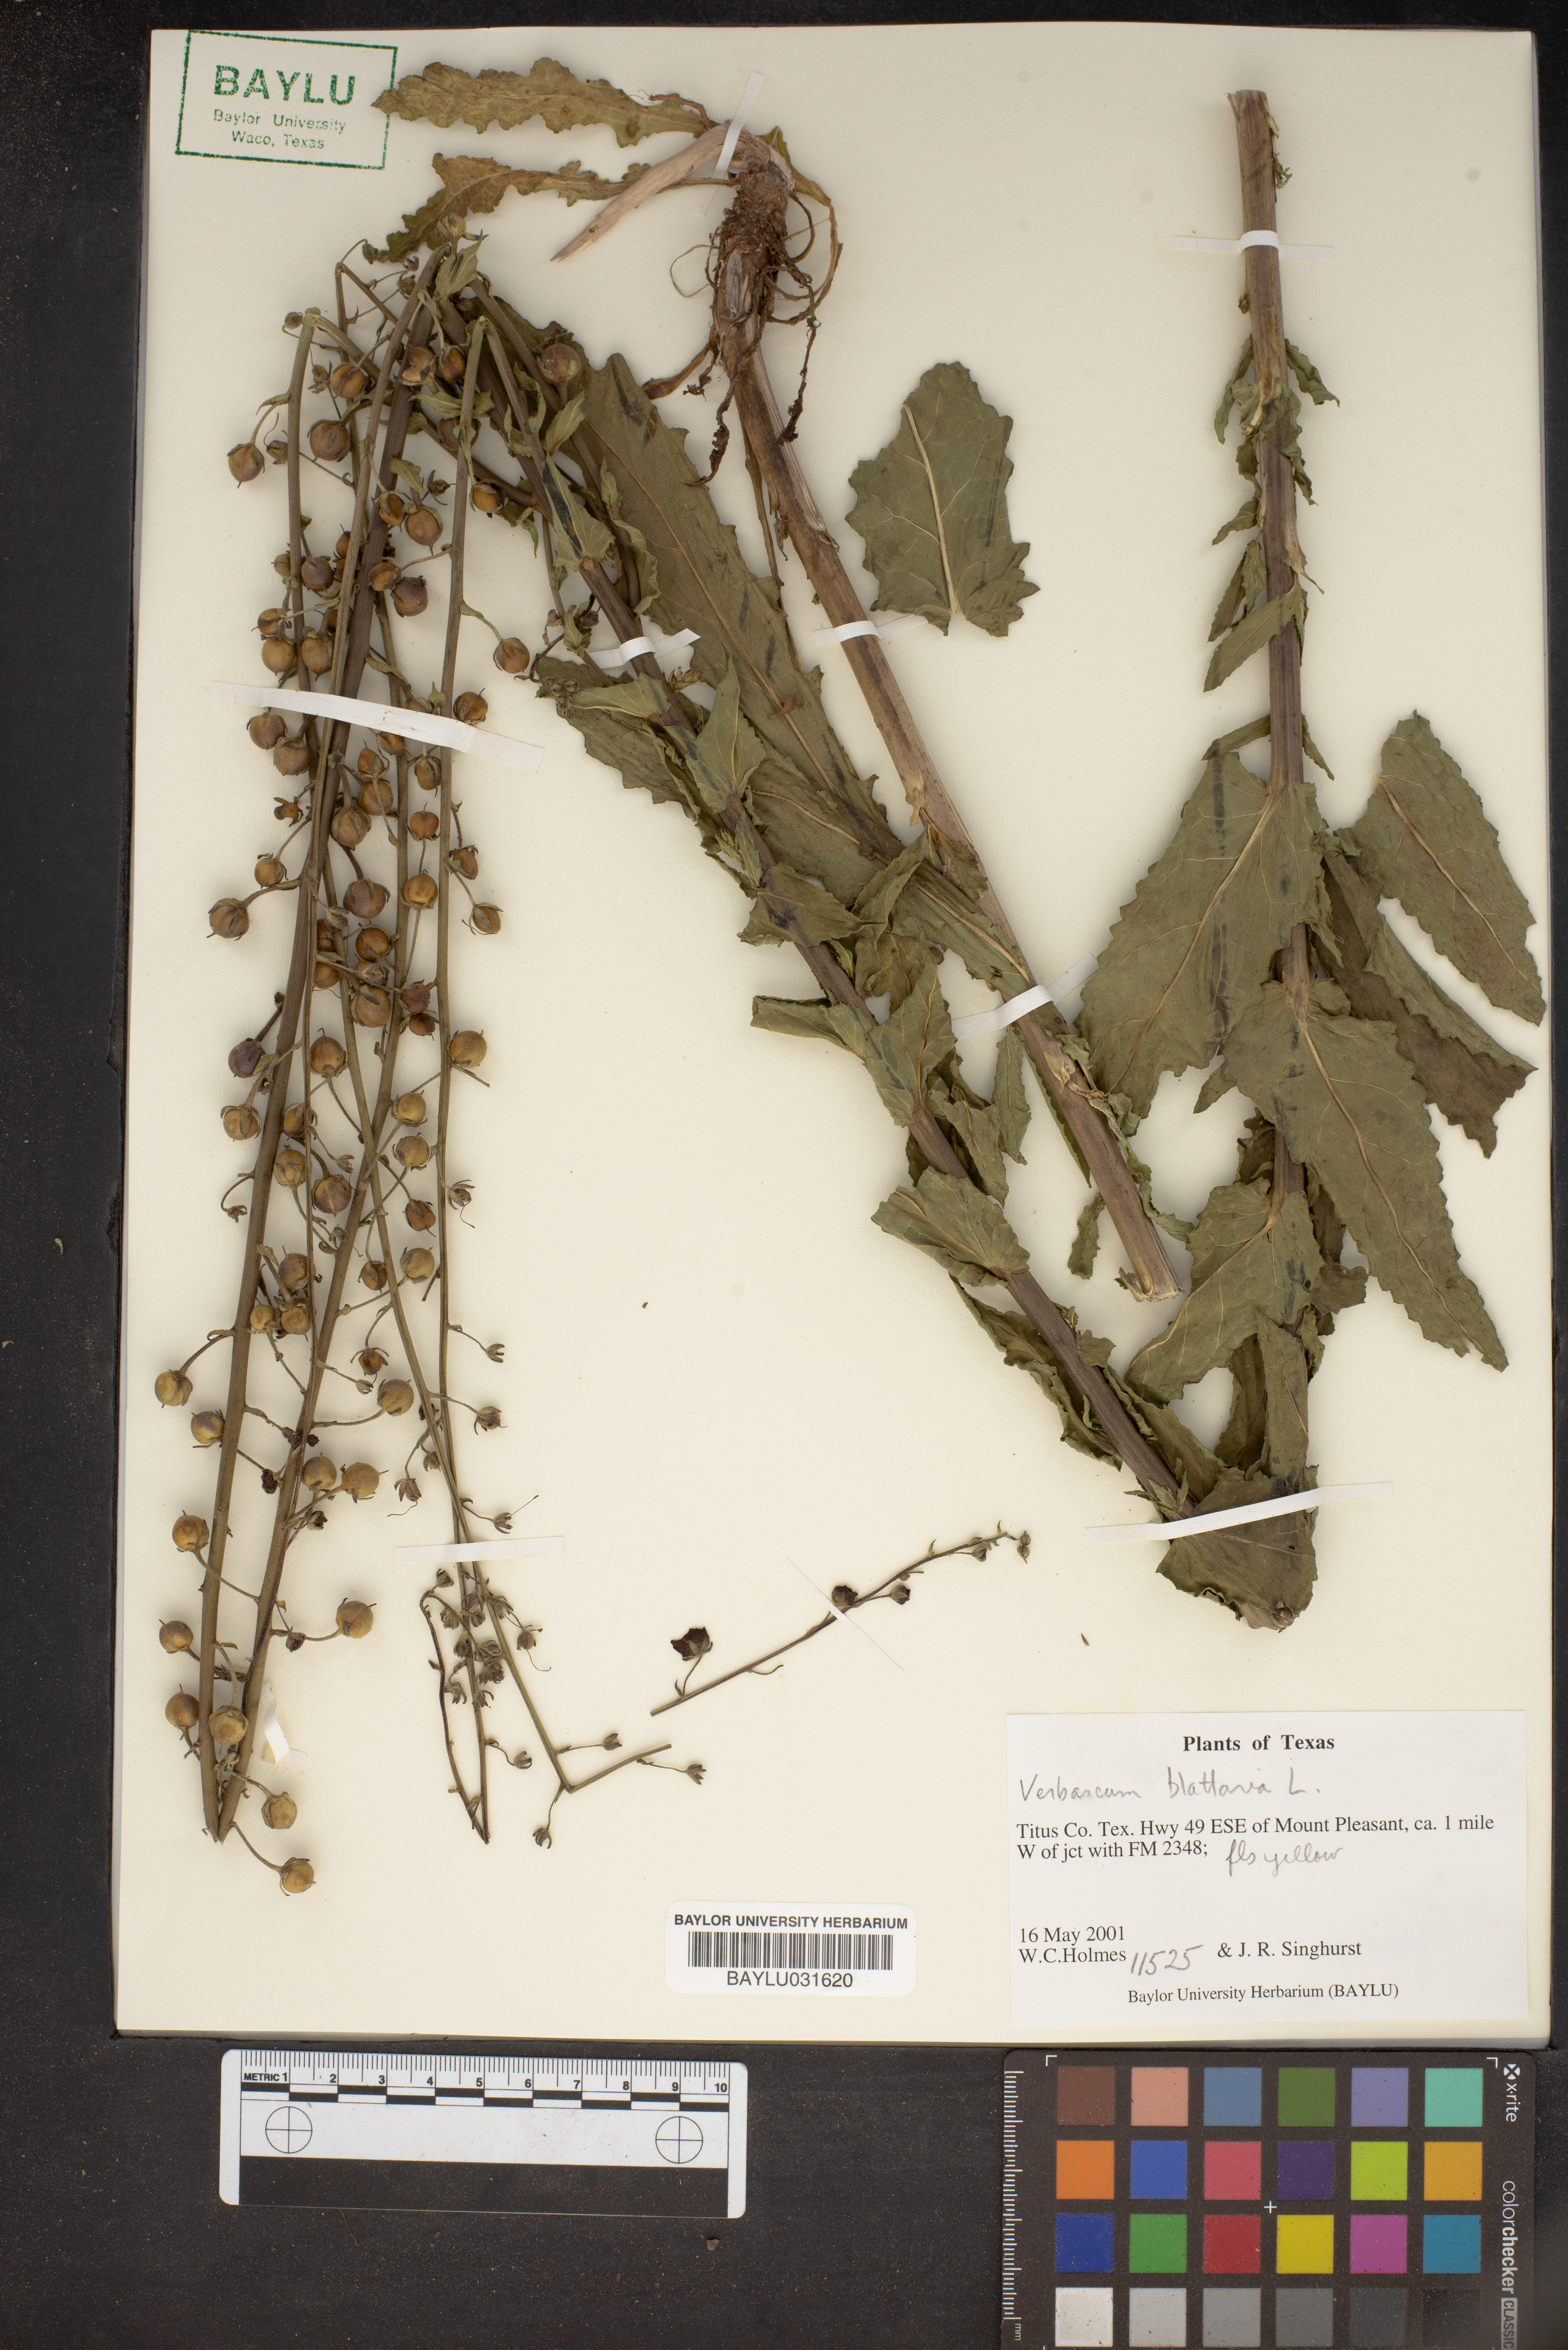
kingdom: Plantae
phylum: Tracheophyta
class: Magnoliopsida
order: Lamiales
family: Scrophulariaceae
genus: Verbascum
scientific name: Verbascum blattaria
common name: Moth mullein
